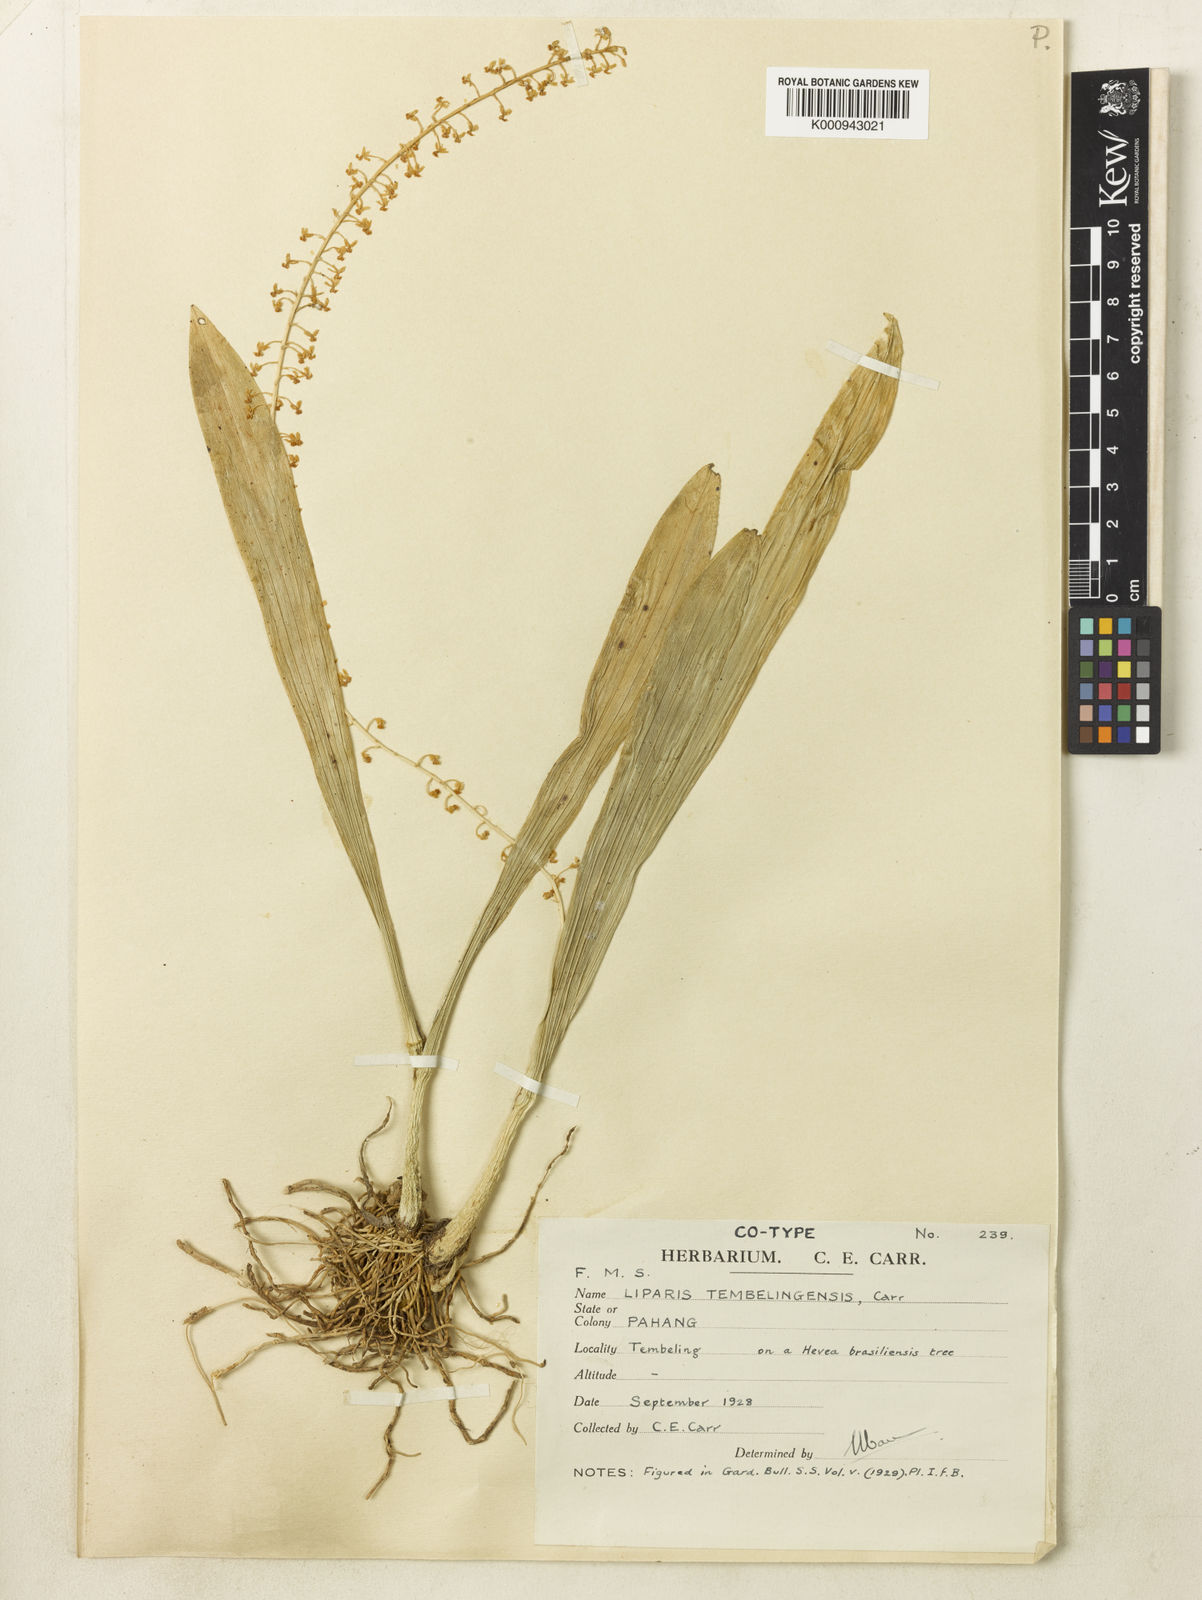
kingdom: Plantae
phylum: Tracheophyta
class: Liliopsida
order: Asparagales
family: Orchidaceae
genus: Liparis
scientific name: Liparis parviflora
